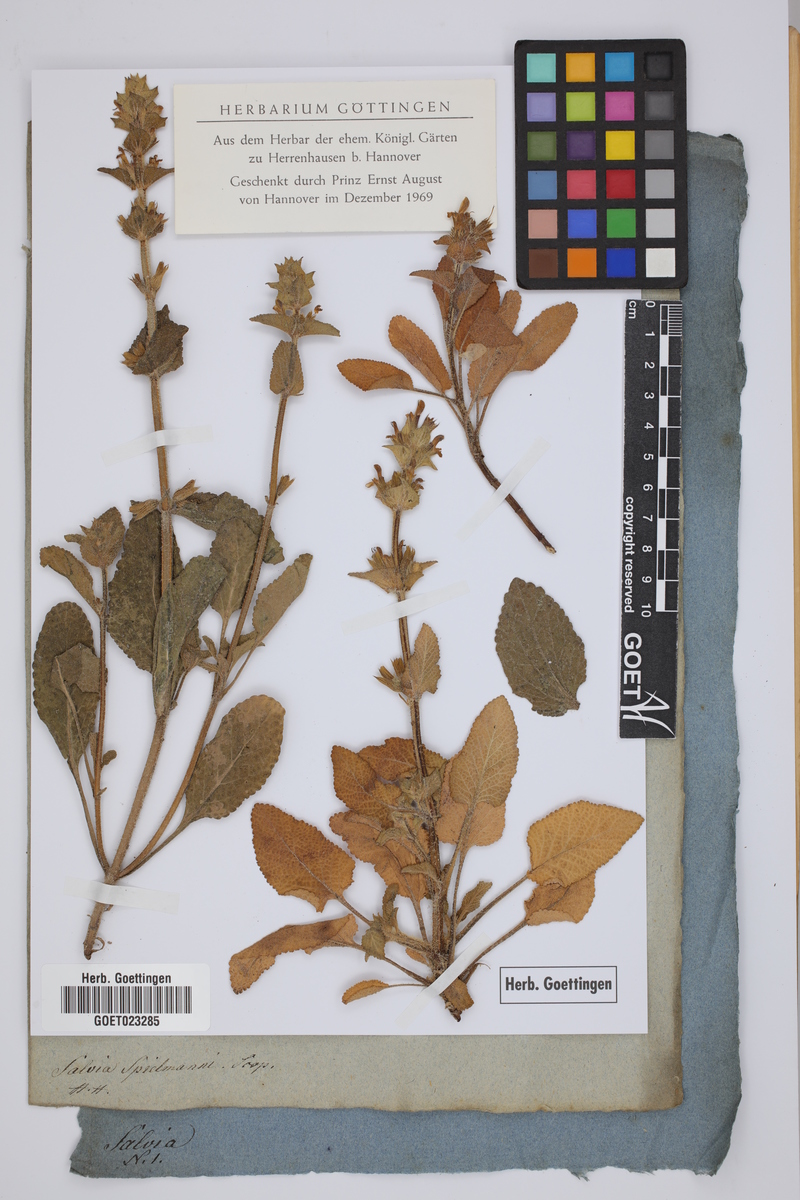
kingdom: Plantae
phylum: Tracheophyta
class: Magnoliopsida
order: Lamiales
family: Lamiaceae
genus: Salvia
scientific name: Salvia viridis
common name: Annual clary
